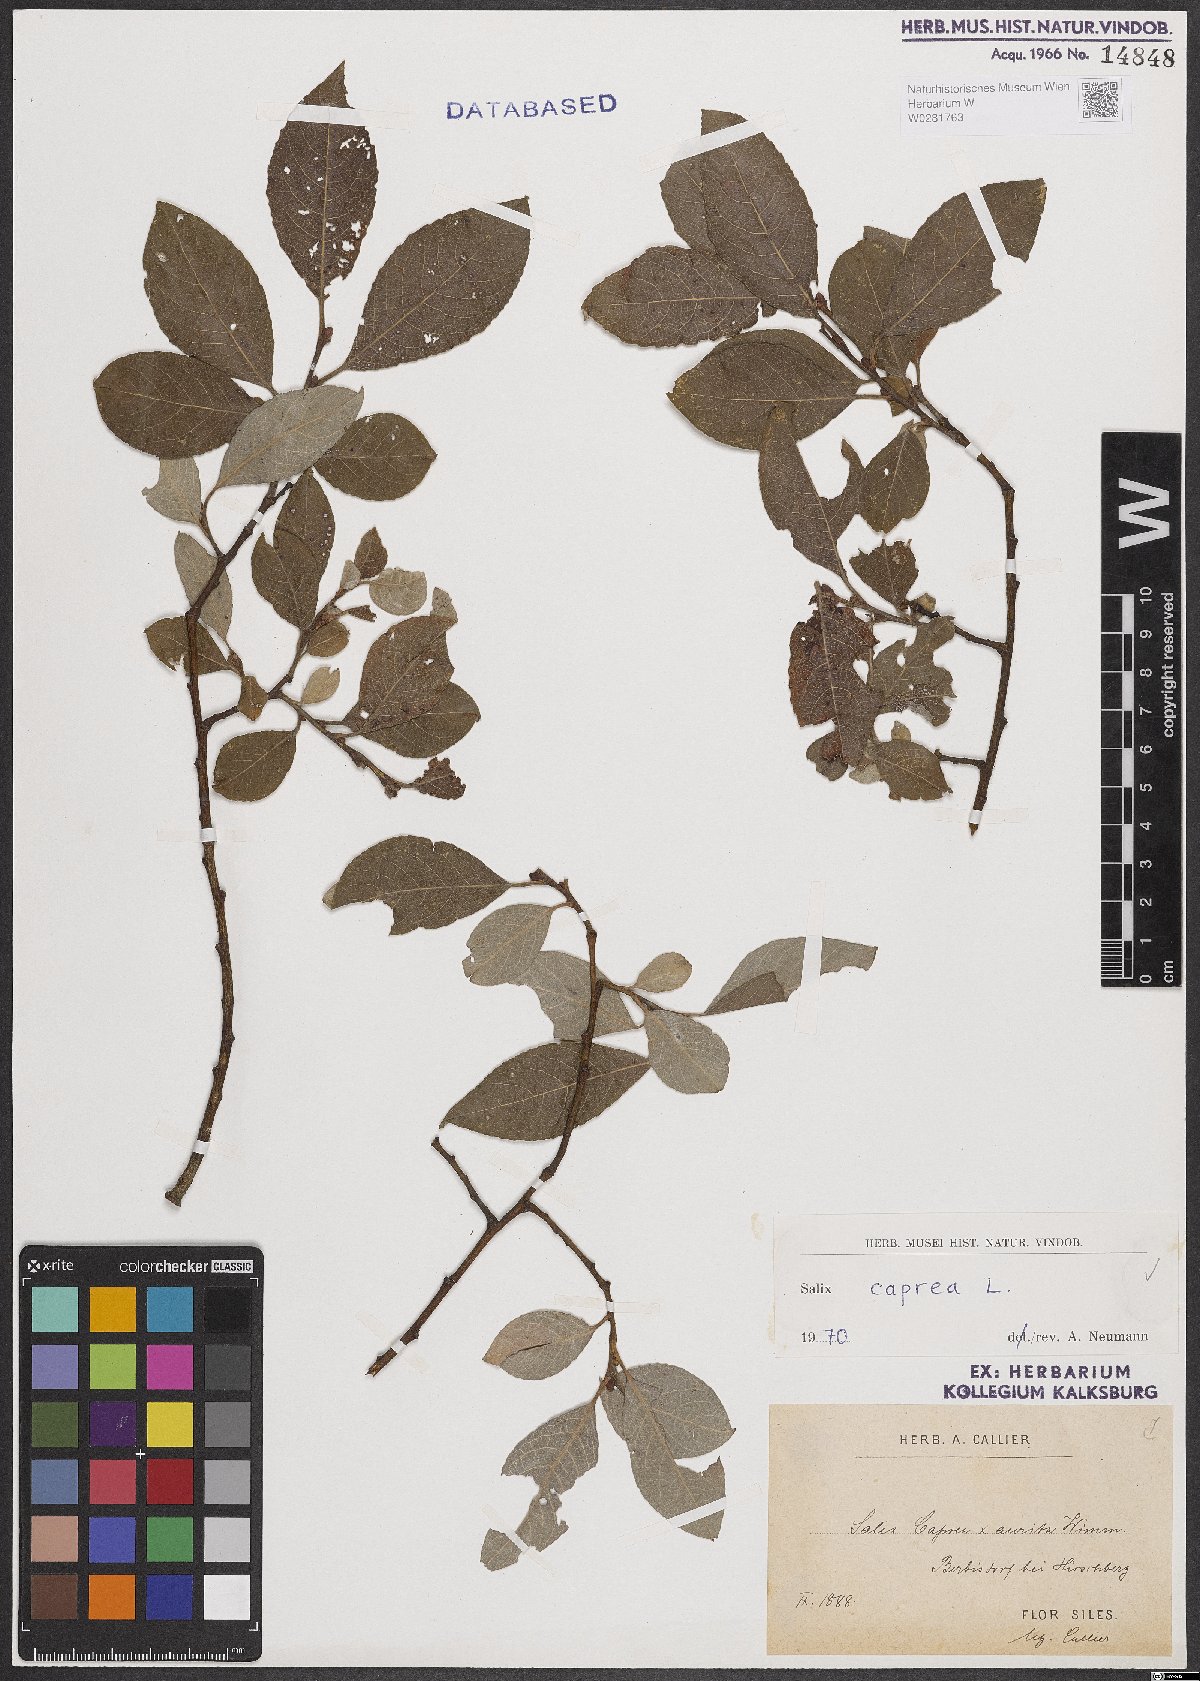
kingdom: Plantae
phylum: Tracheophyta
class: Magnoliopsida
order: Malpighiales
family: Salicaceae
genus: Salix
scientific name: Salix caprea
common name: Goat willow
